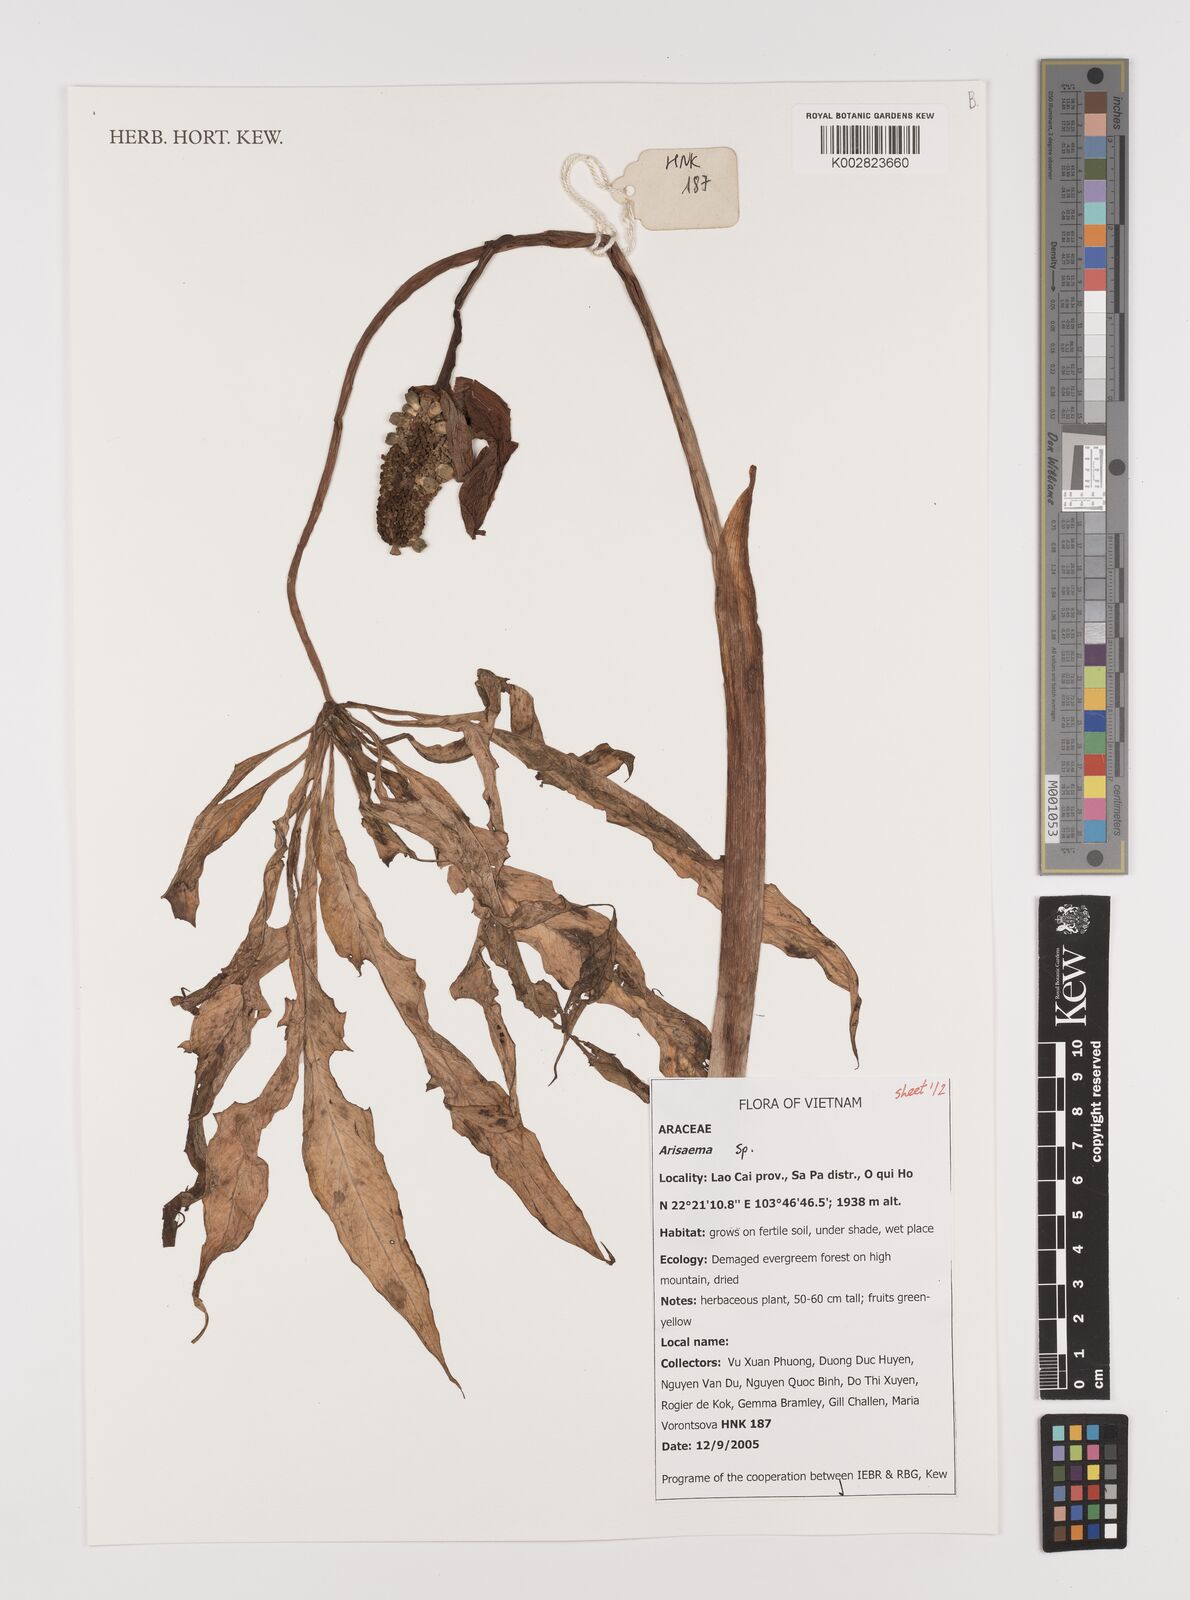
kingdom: Plantae
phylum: Tracheophyta
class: Liliopsida
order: Alismatales
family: Araceae
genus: Arisaema
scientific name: Arisaema
